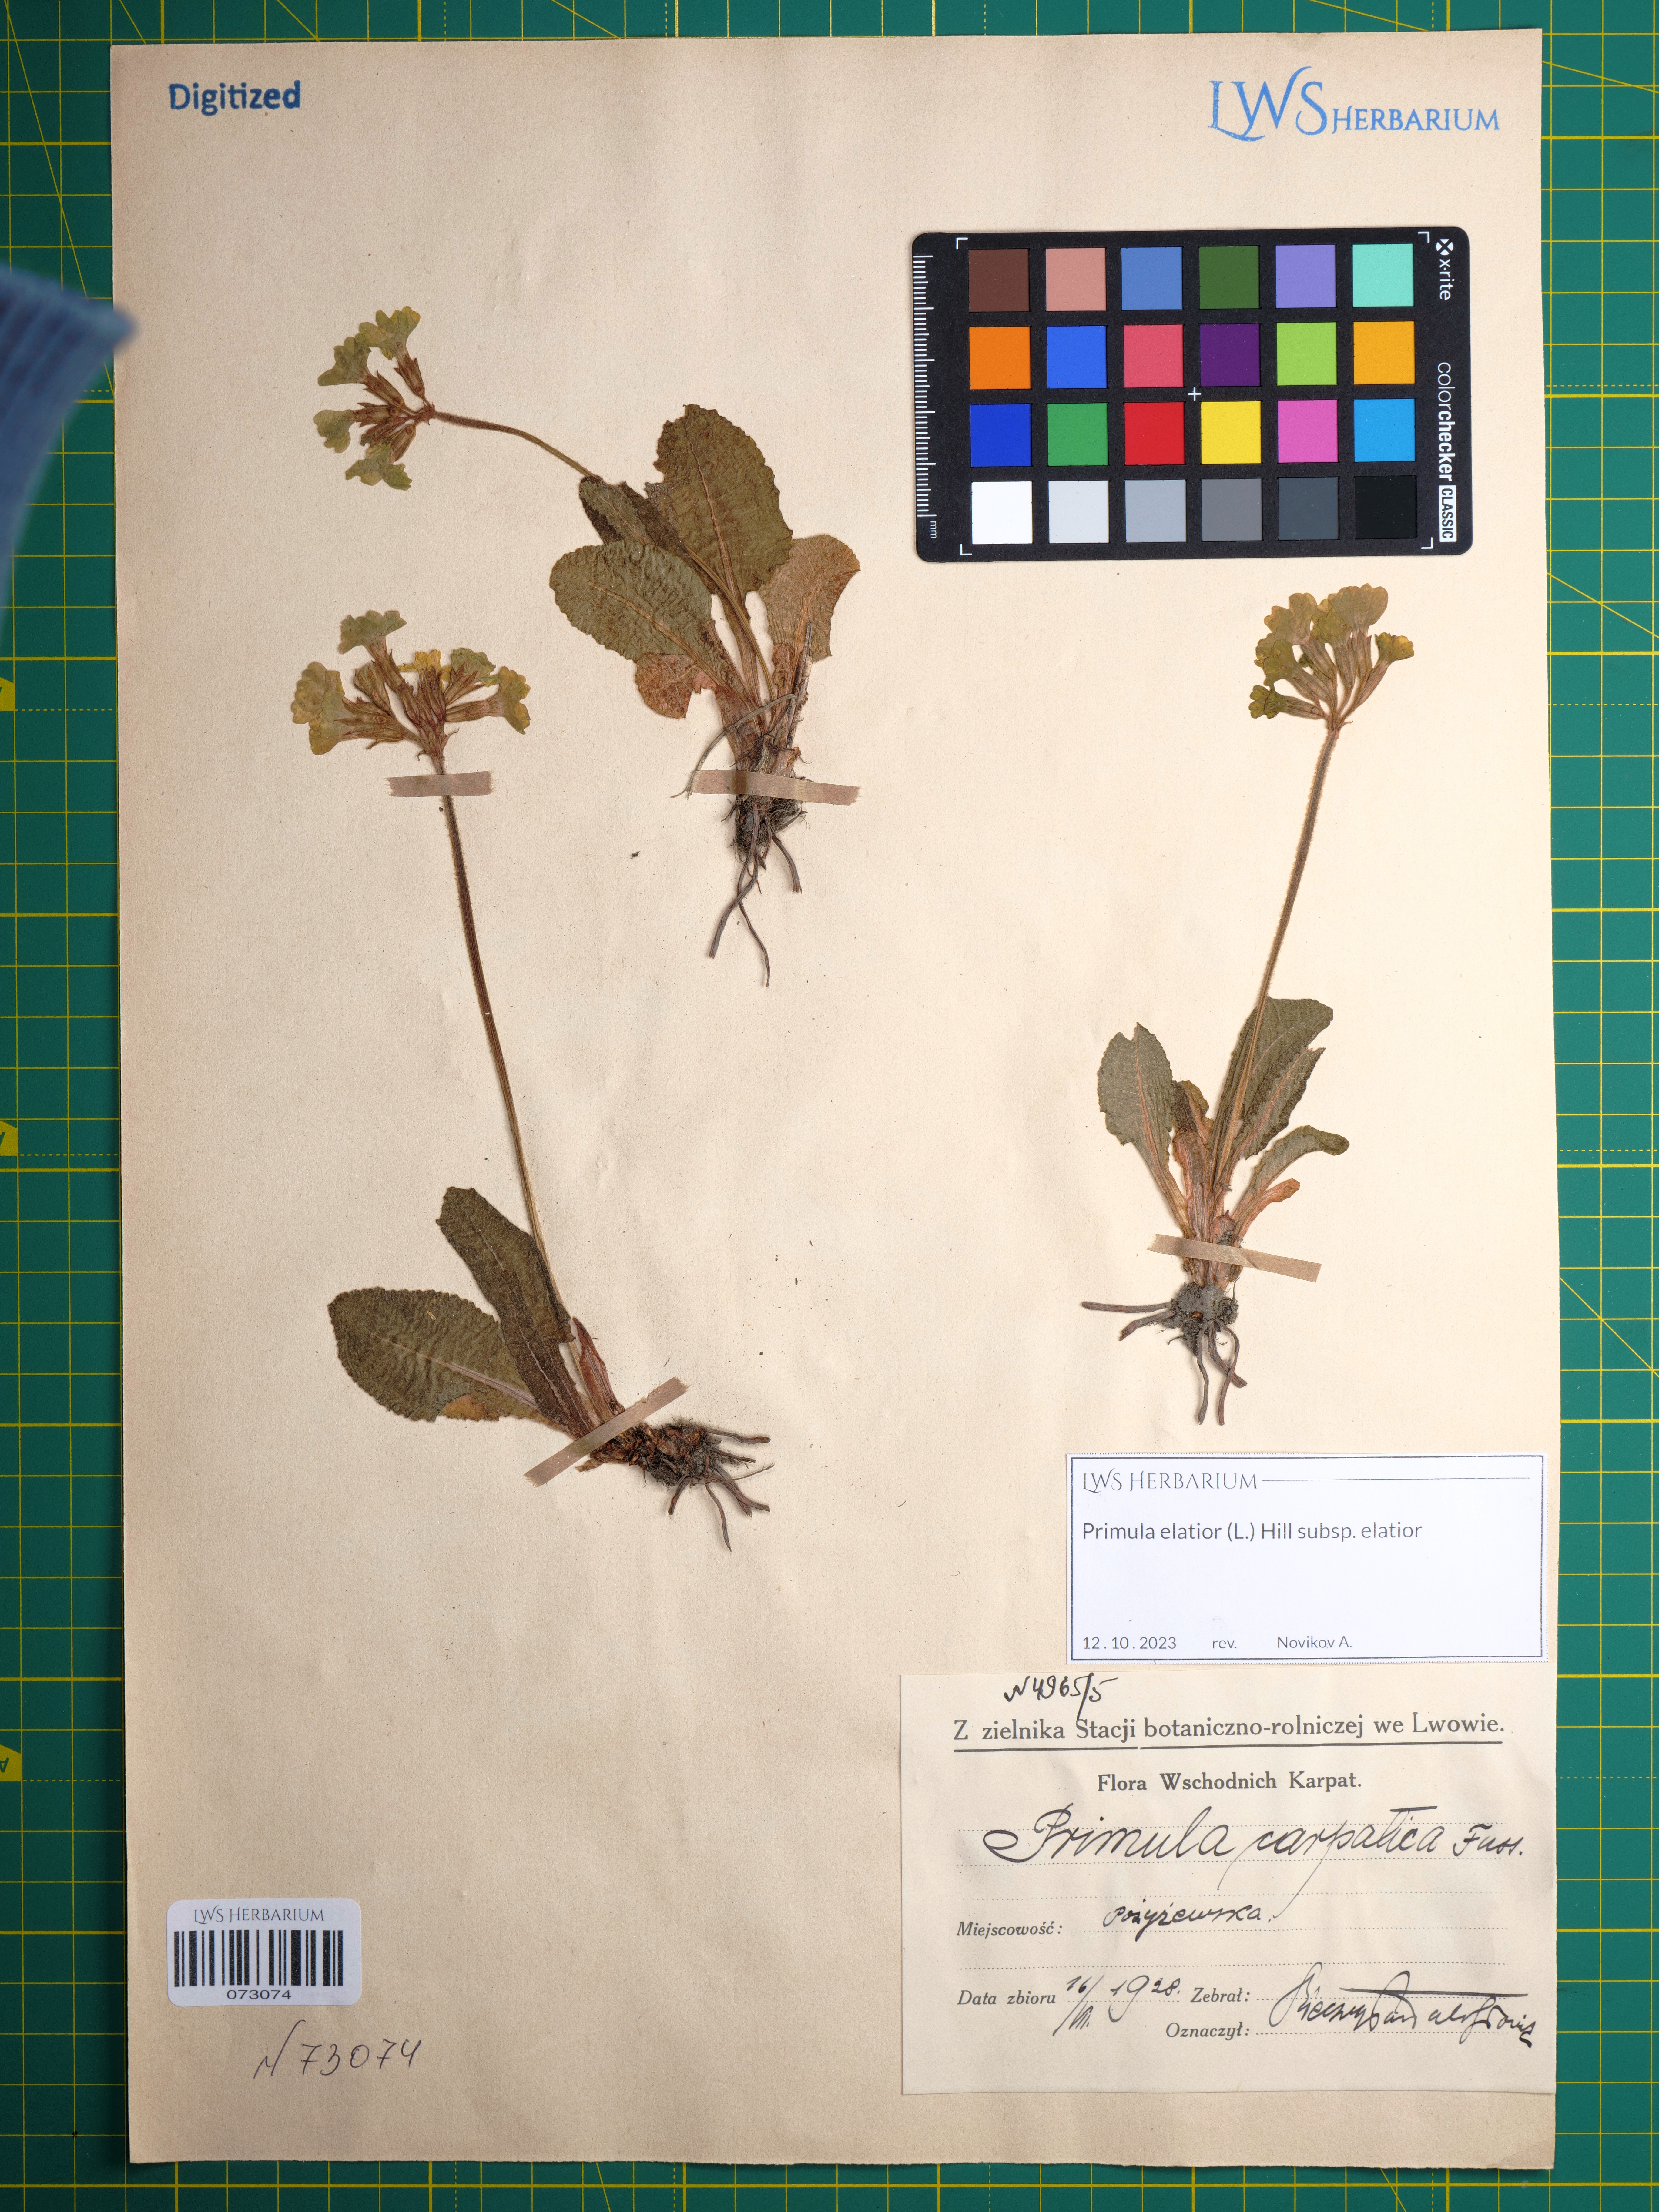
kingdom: Plantae
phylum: Tracheophyta
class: Magnoliopsida
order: Ericales
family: Primulaceae
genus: Primula
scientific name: Primula elatior
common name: Oxlip
